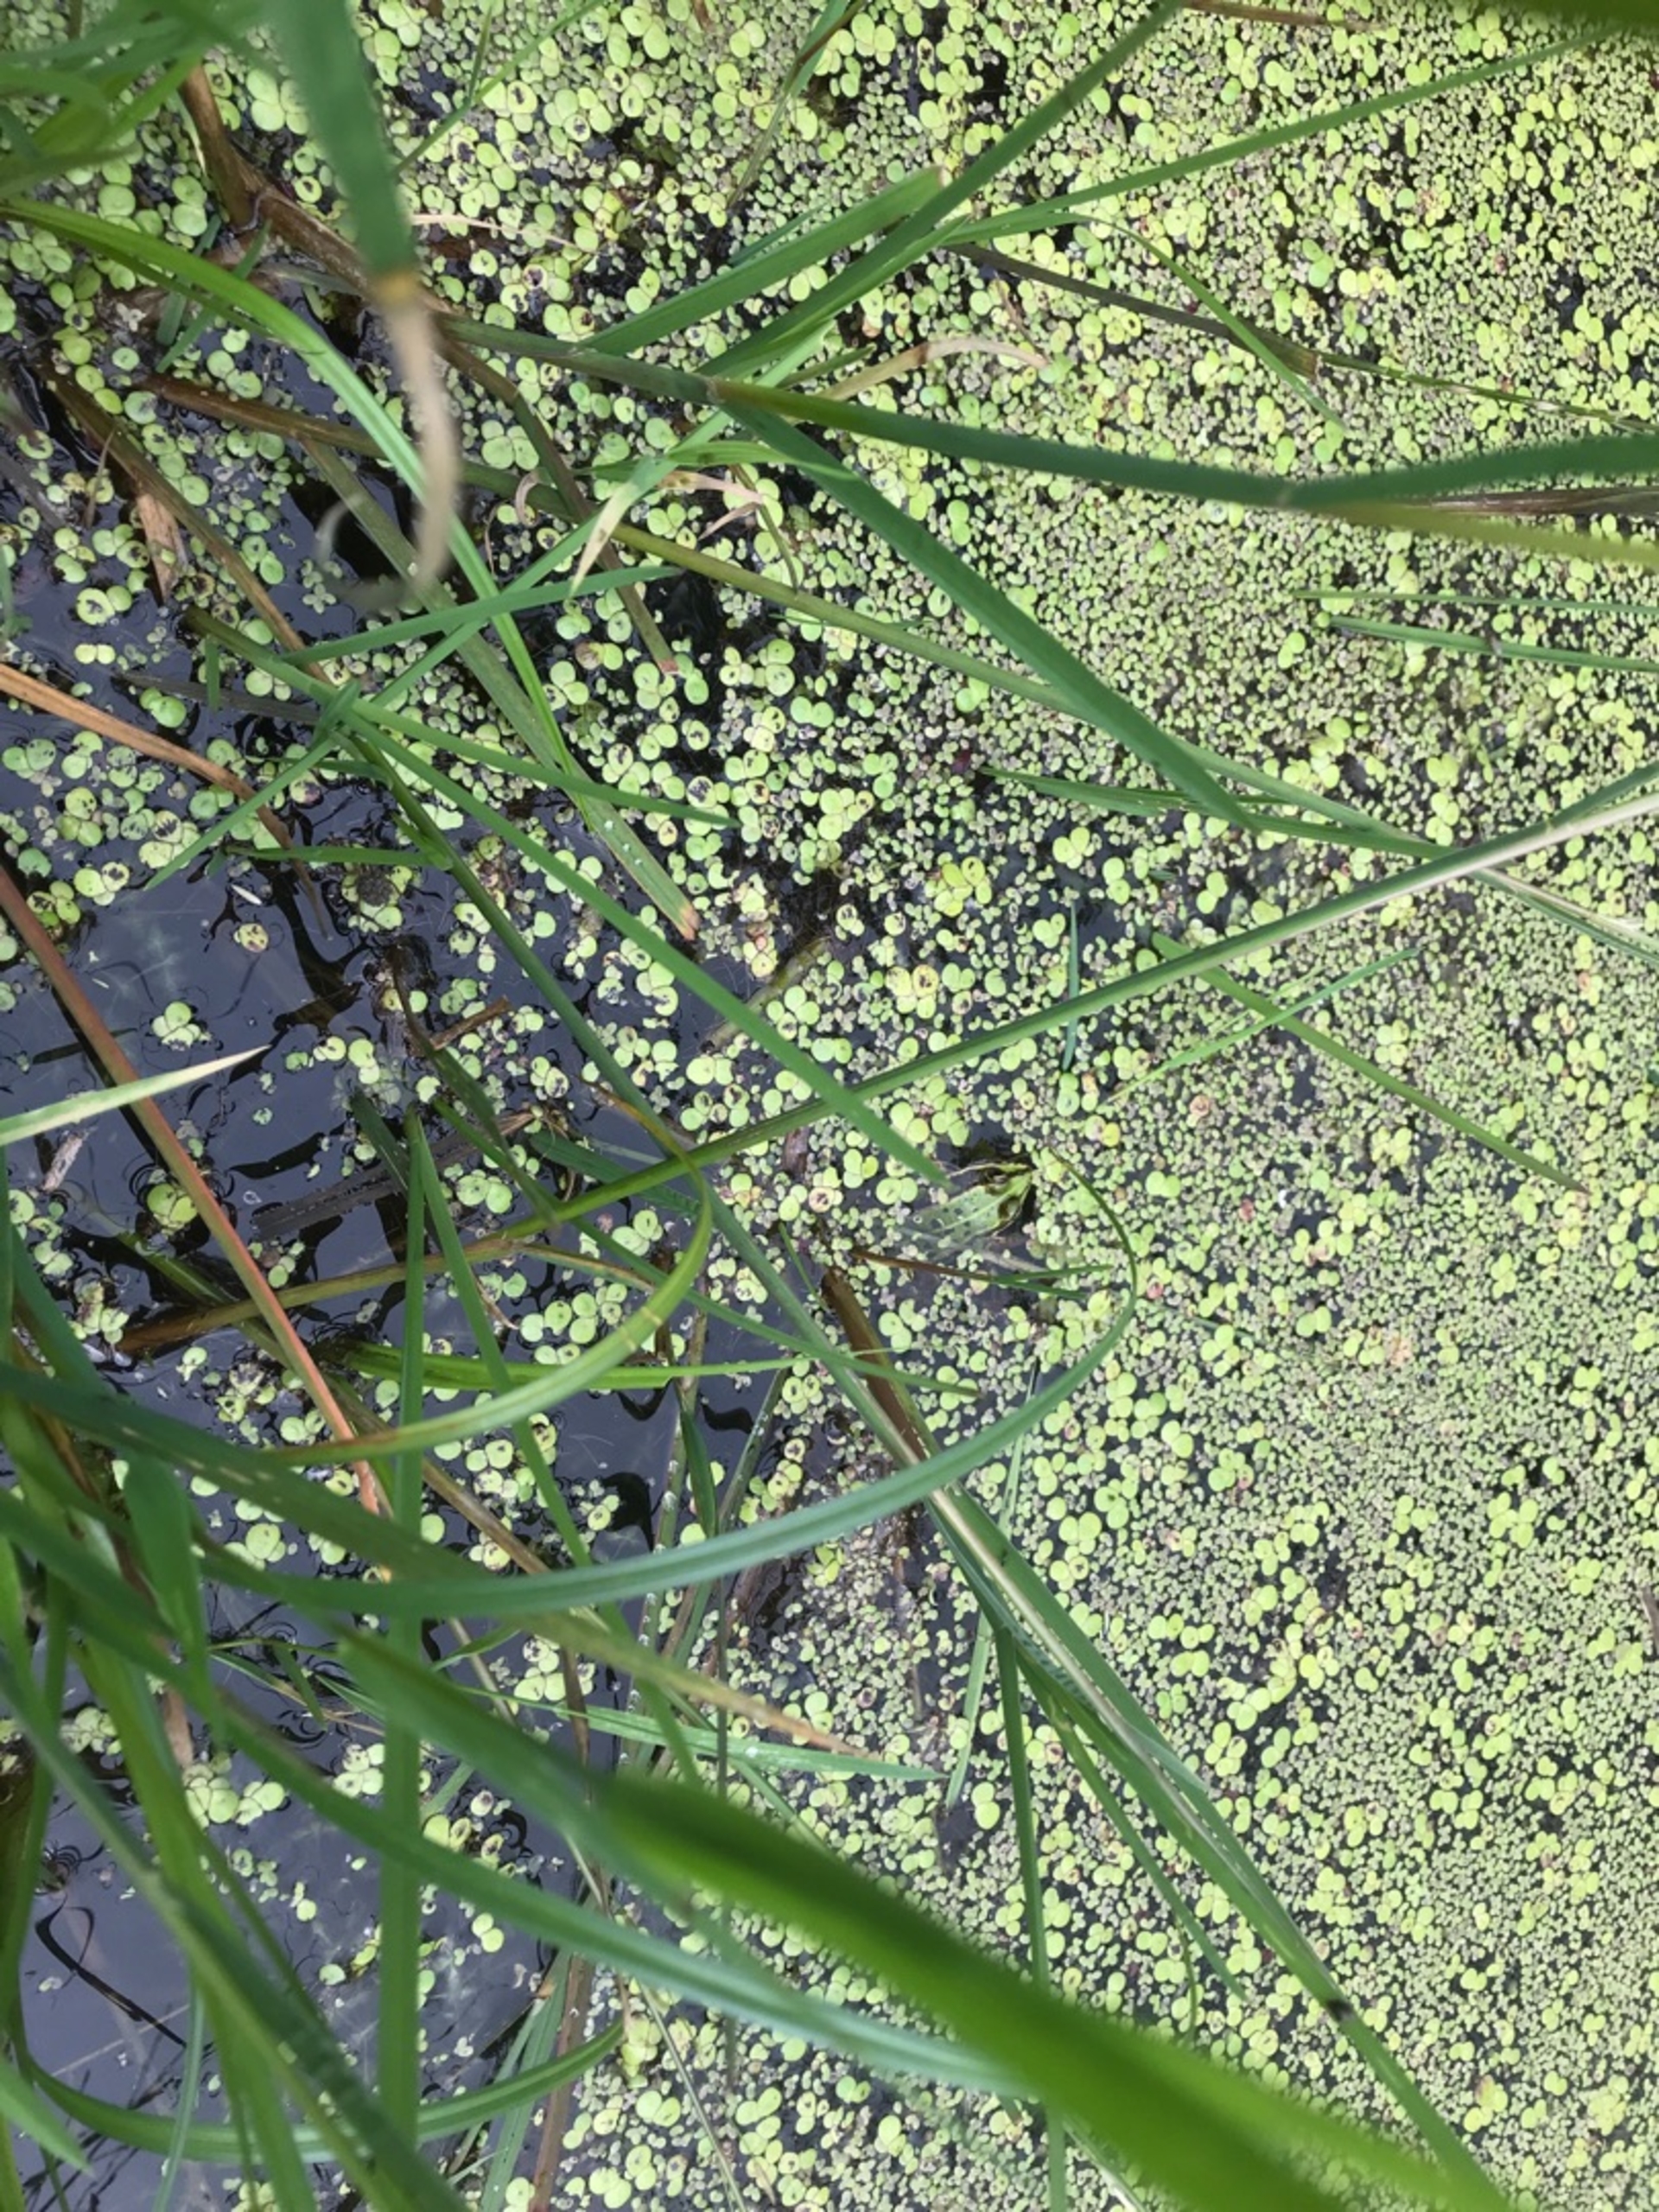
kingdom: Animalia
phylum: Chordata
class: Amphibia
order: Anura
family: Ranidae
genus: Pelophylax
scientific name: Pelophylax lessonae
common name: Grøn frø
